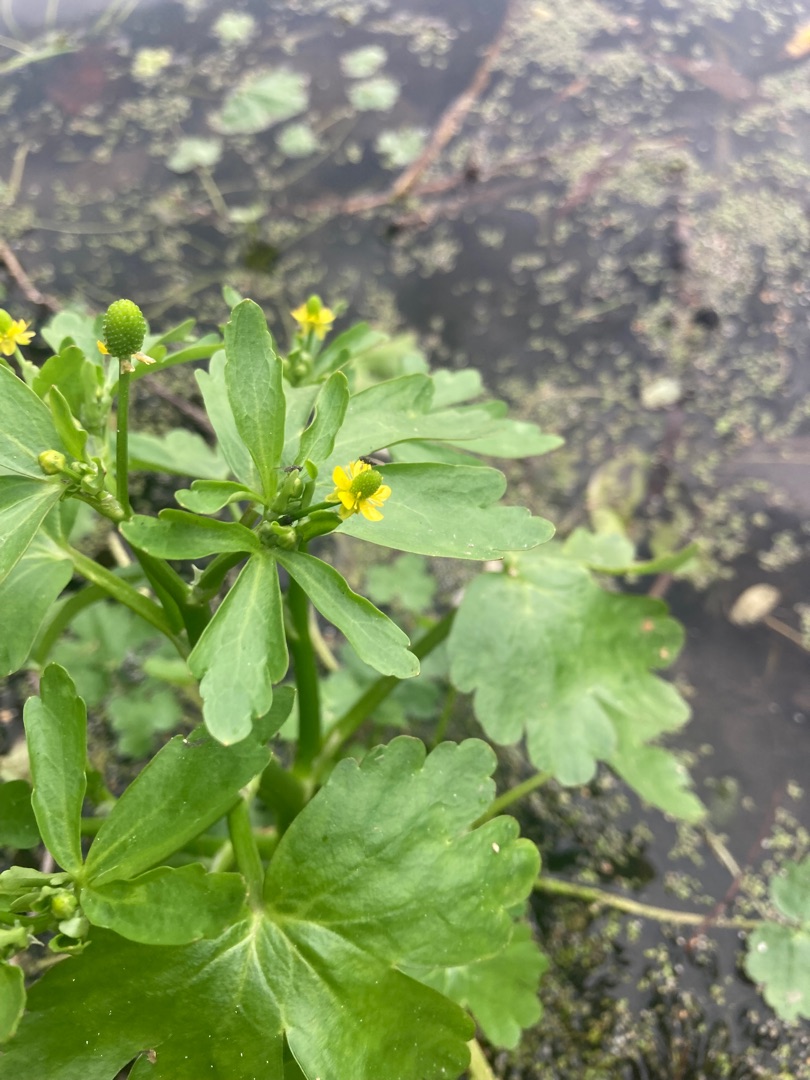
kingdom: Plantae
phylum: Tracheophyta
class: Magnoliopsida
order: Ranunculales
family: Ranunculaceae
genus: Ranunculus
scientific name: Ranunculus sceleratus
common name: Tigger-ranunkel
